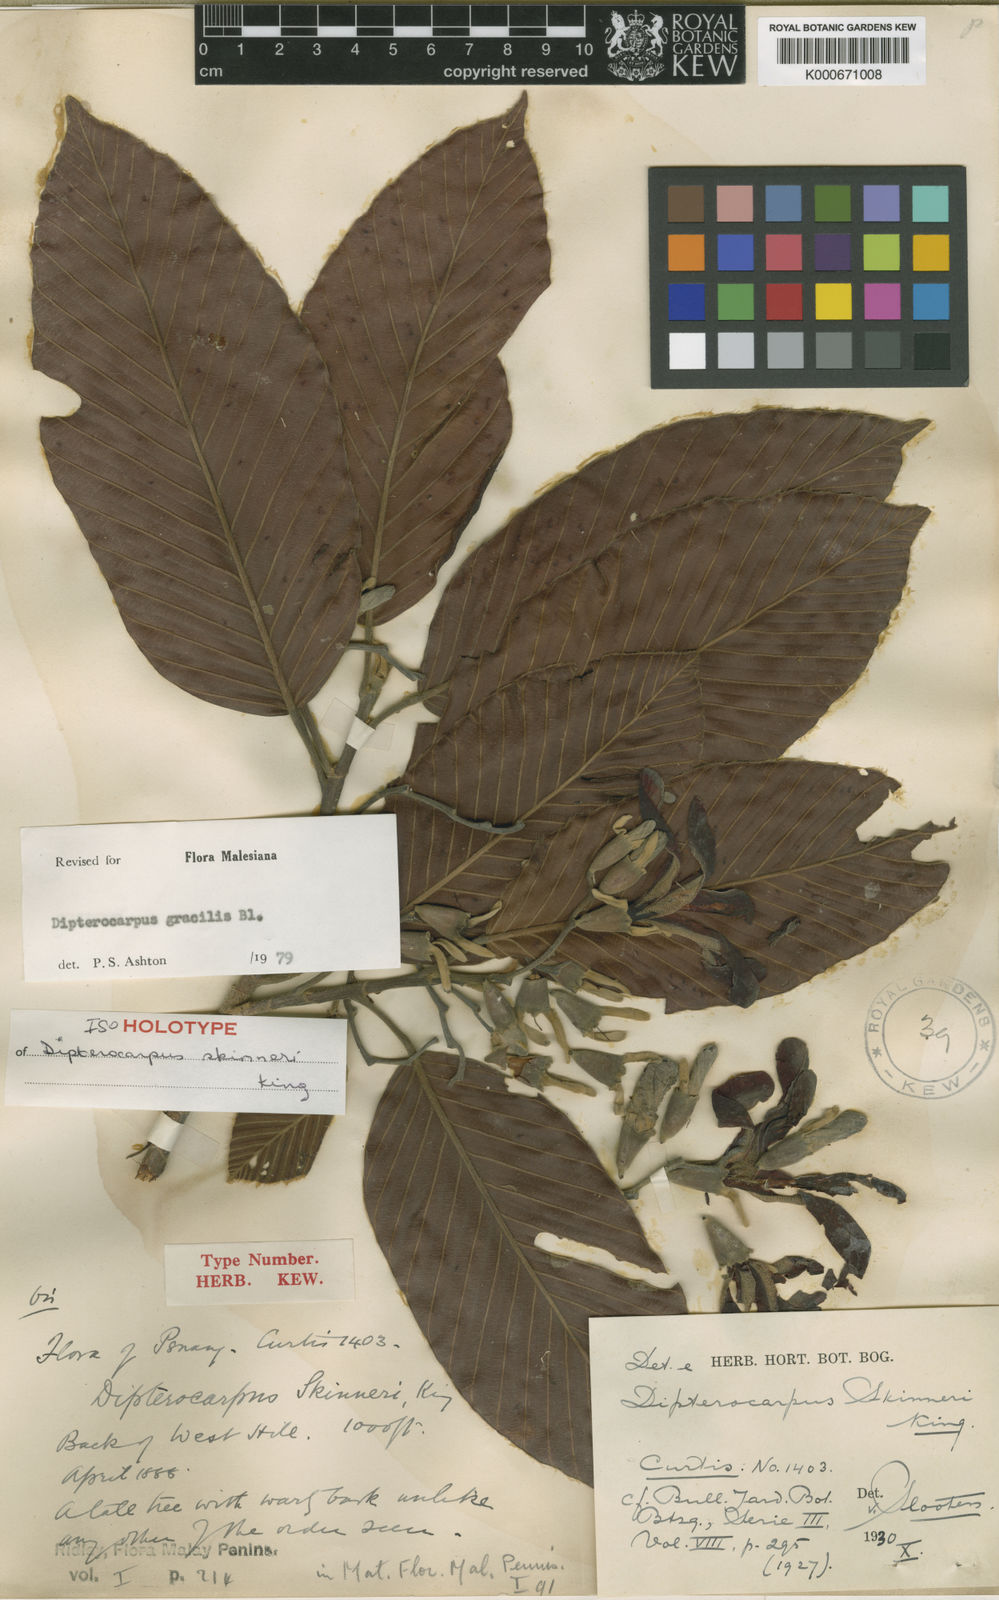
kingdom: Plantae
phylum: Tracheophyta
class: Magnoliopsida
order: Malvales
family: Dipterocarpaceae
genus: Dipterocarpus
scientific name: Dipterocarpus gracilis
